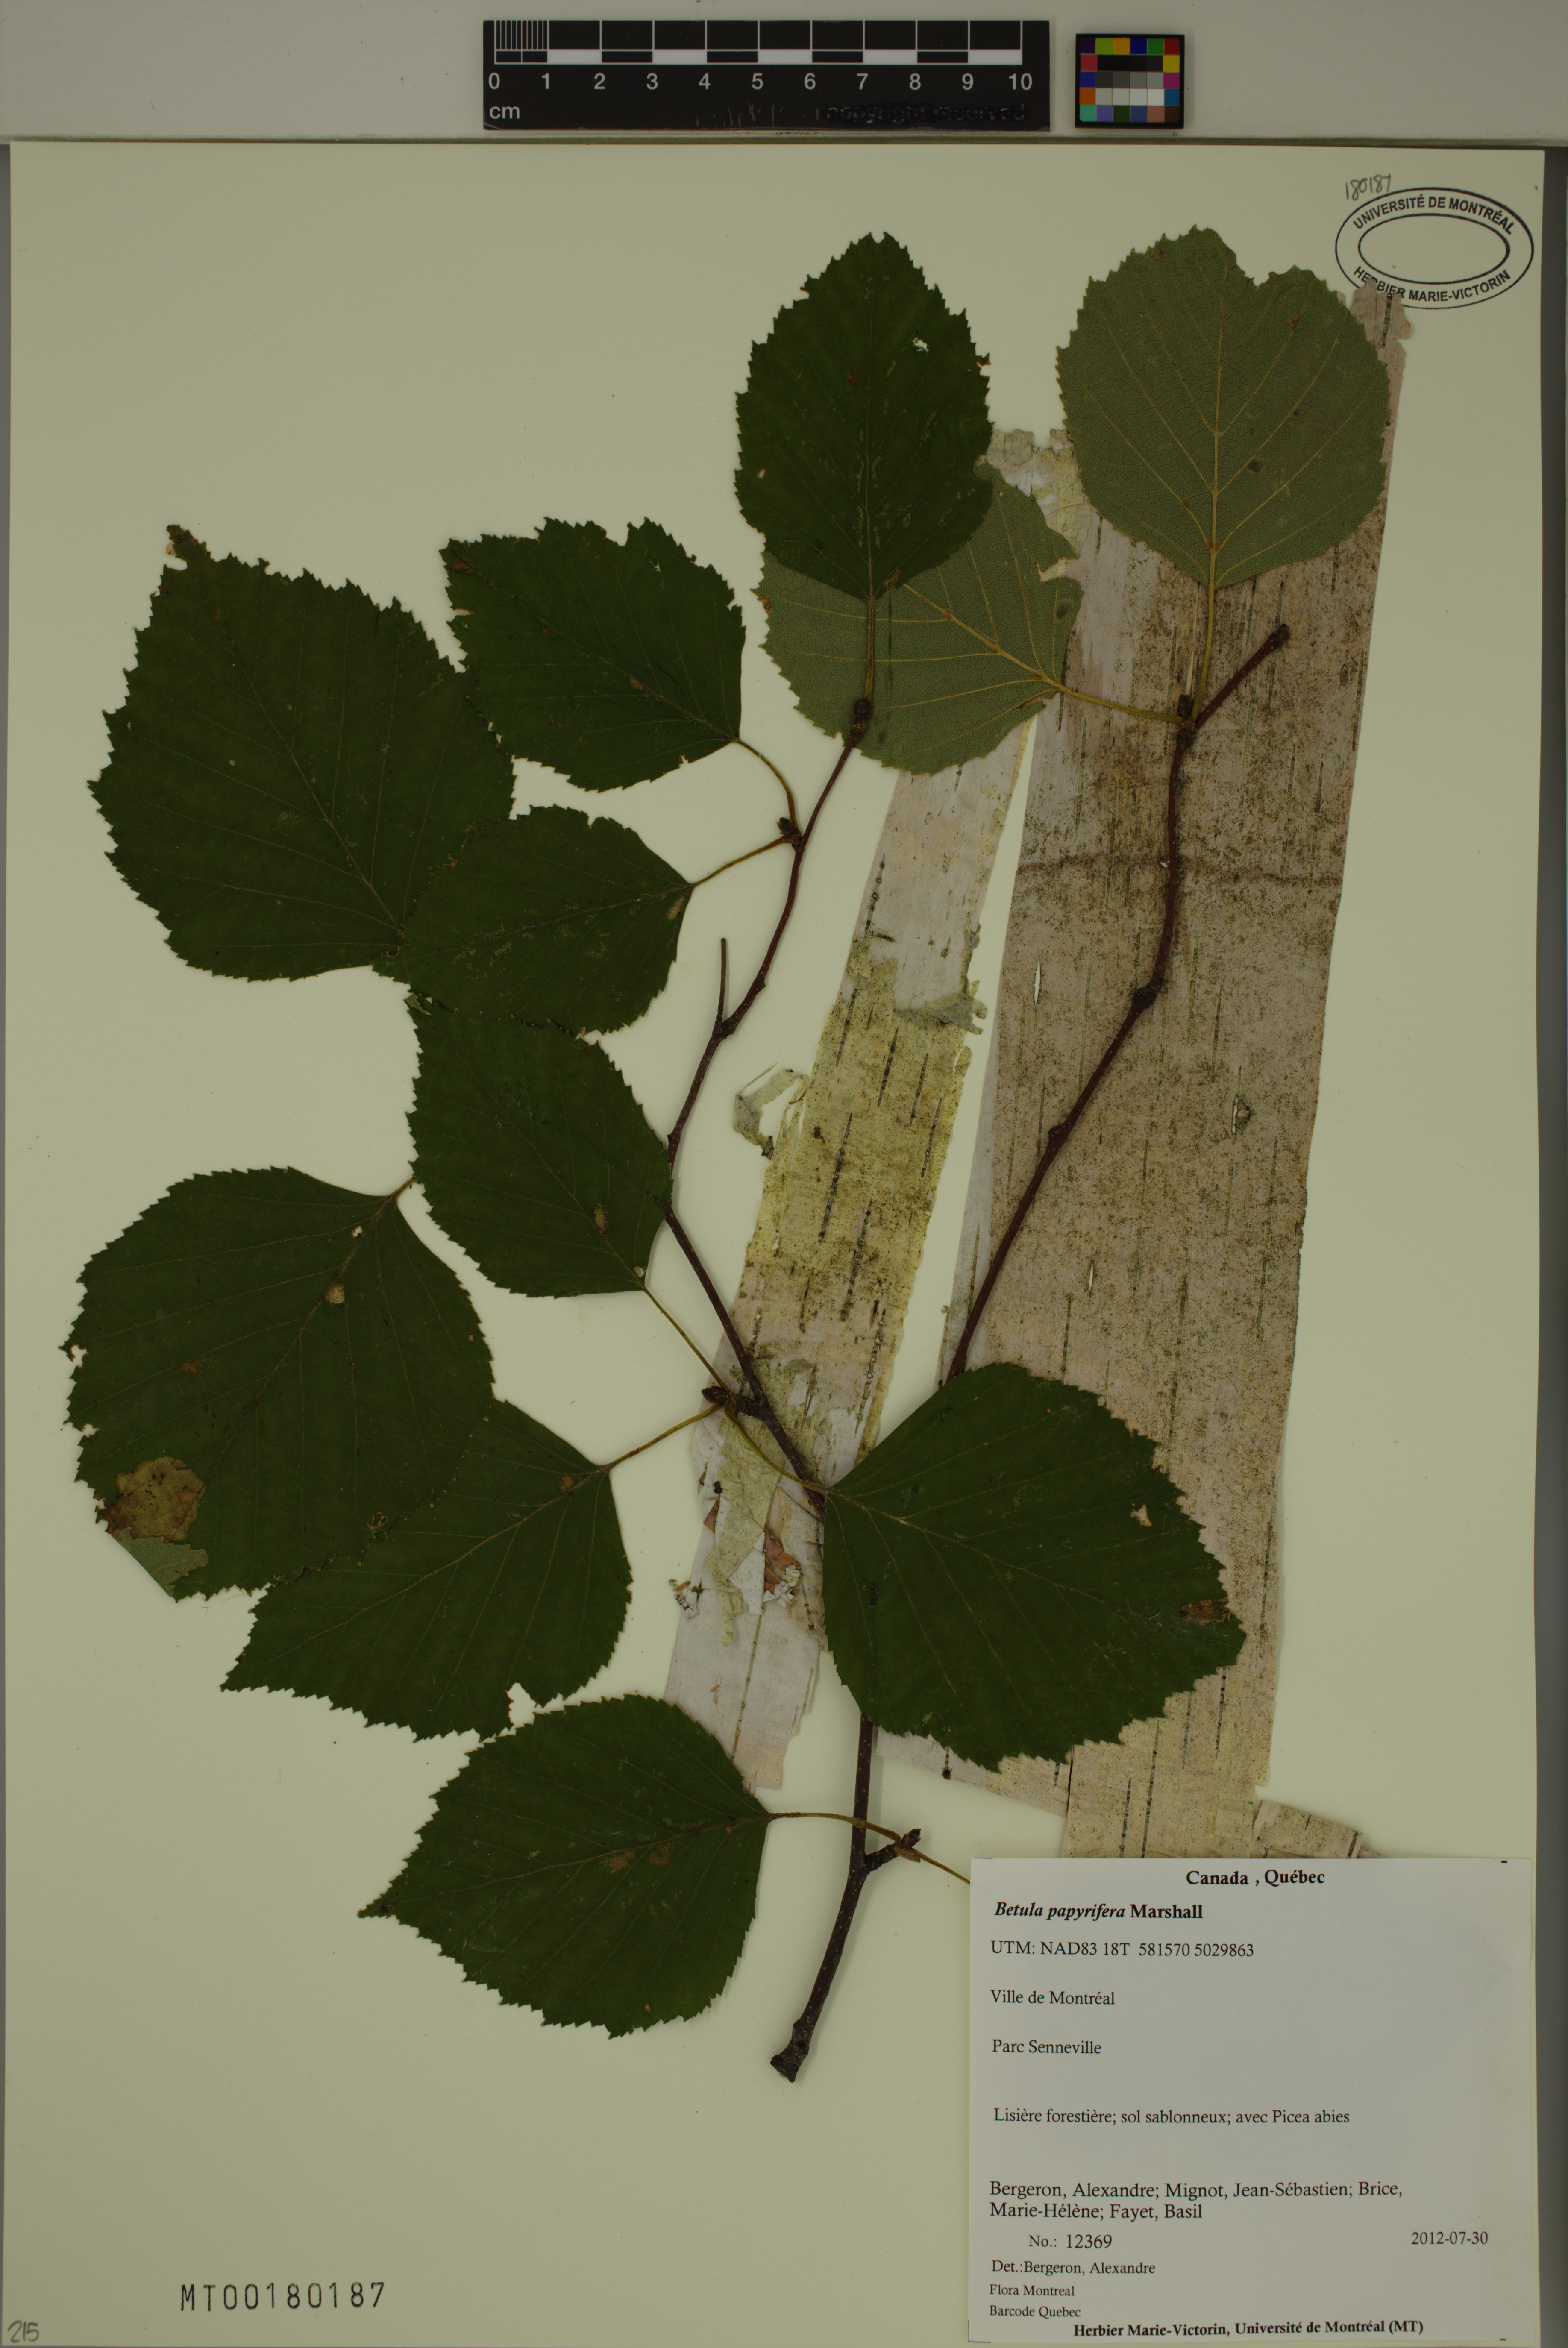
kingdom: Plantae
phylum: Tracheophyta
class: Magnoliopsida
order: Fagales
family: Betulaceae
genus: Betula
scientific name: Betula papyrifera
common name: Paper birch
